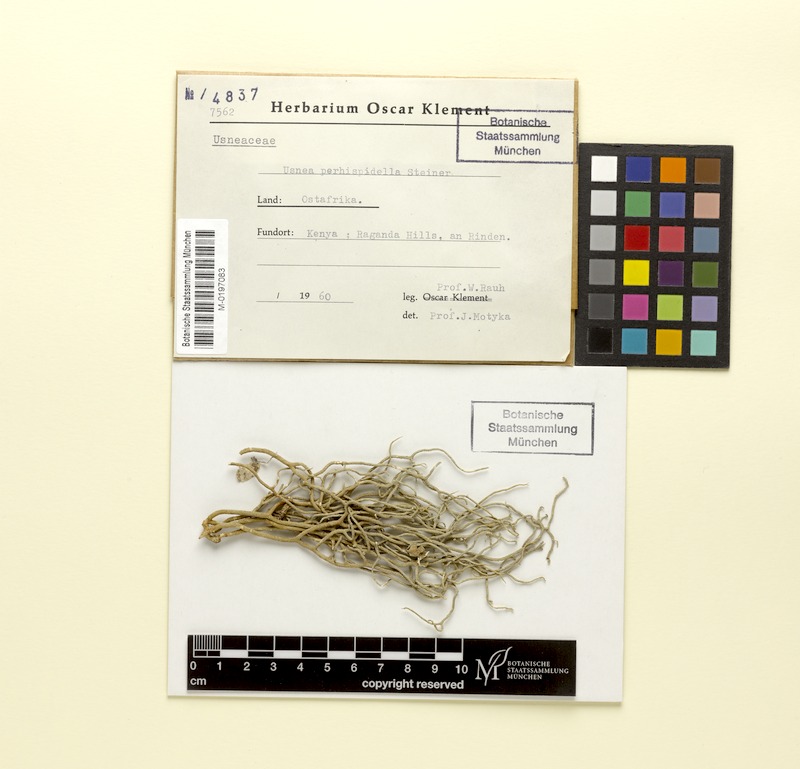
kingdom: Fungi
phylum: Ascomycota
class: Lecanoromycetes
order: Lecanorales
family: Parmeliaceae
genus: Usnea
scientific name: Usnea perhispidella
